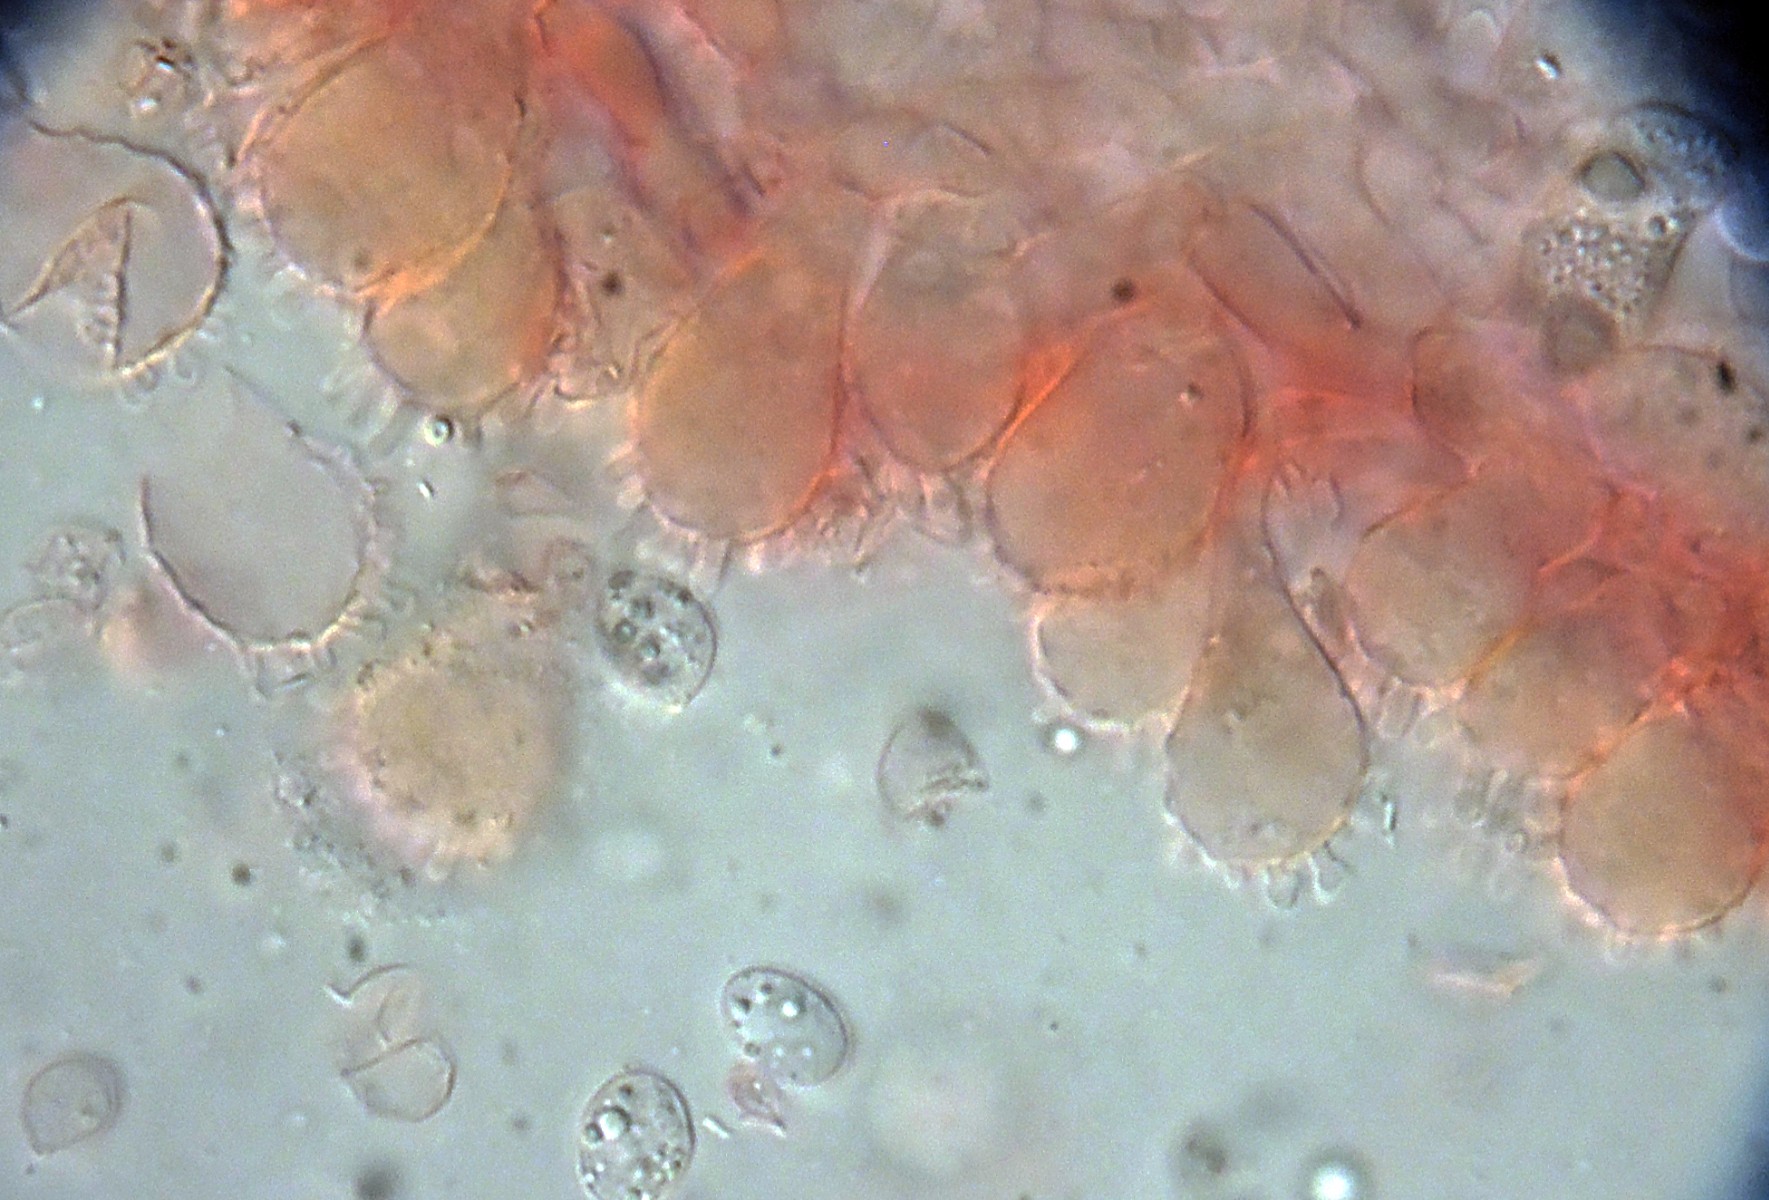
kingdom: Fungi
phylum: Basidiomycota
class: Agaricomycetes
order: Agaricales
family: Mycenaceae
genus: Mycena
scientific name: Mycena xantholeuca
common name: cremehvid huesvamp
